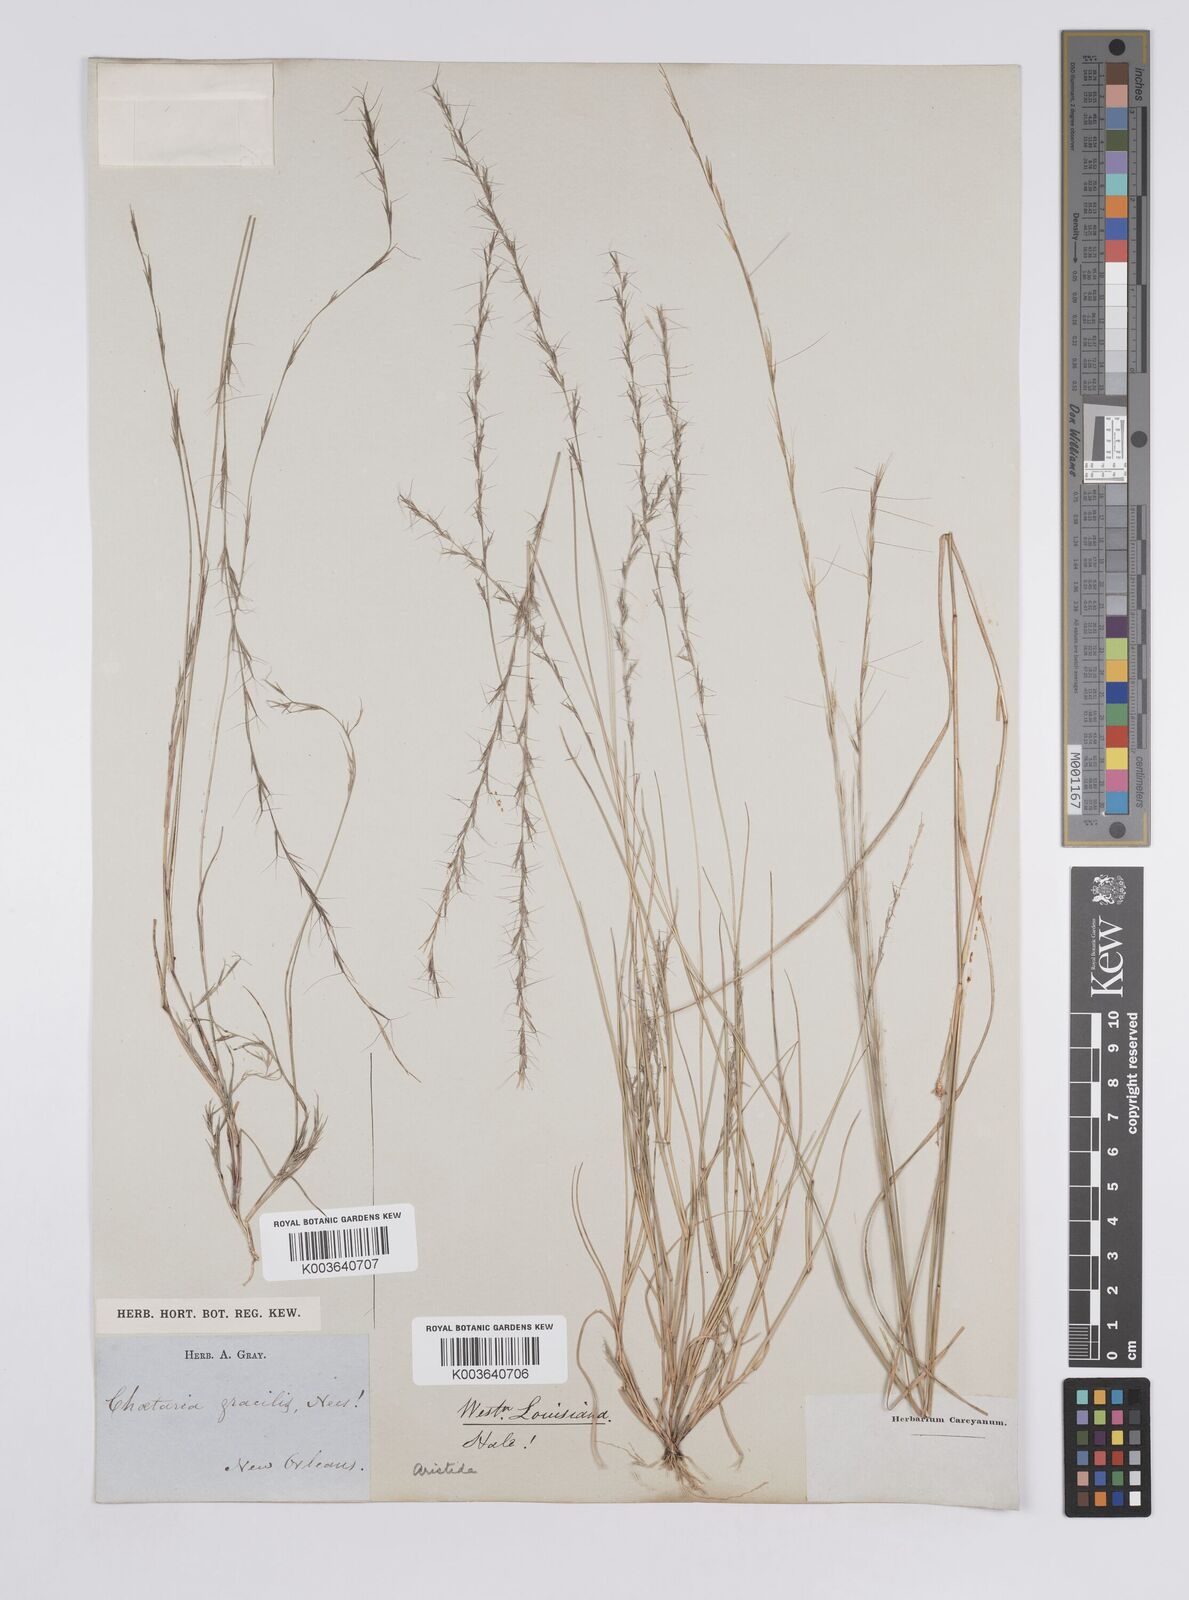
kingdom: Plantae
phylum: Tracheophyta
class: Liliopsida
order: Poales
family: Poaceae
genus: Aristida
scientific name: Aristida longespica
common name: Long-spiked triple-awned grass
